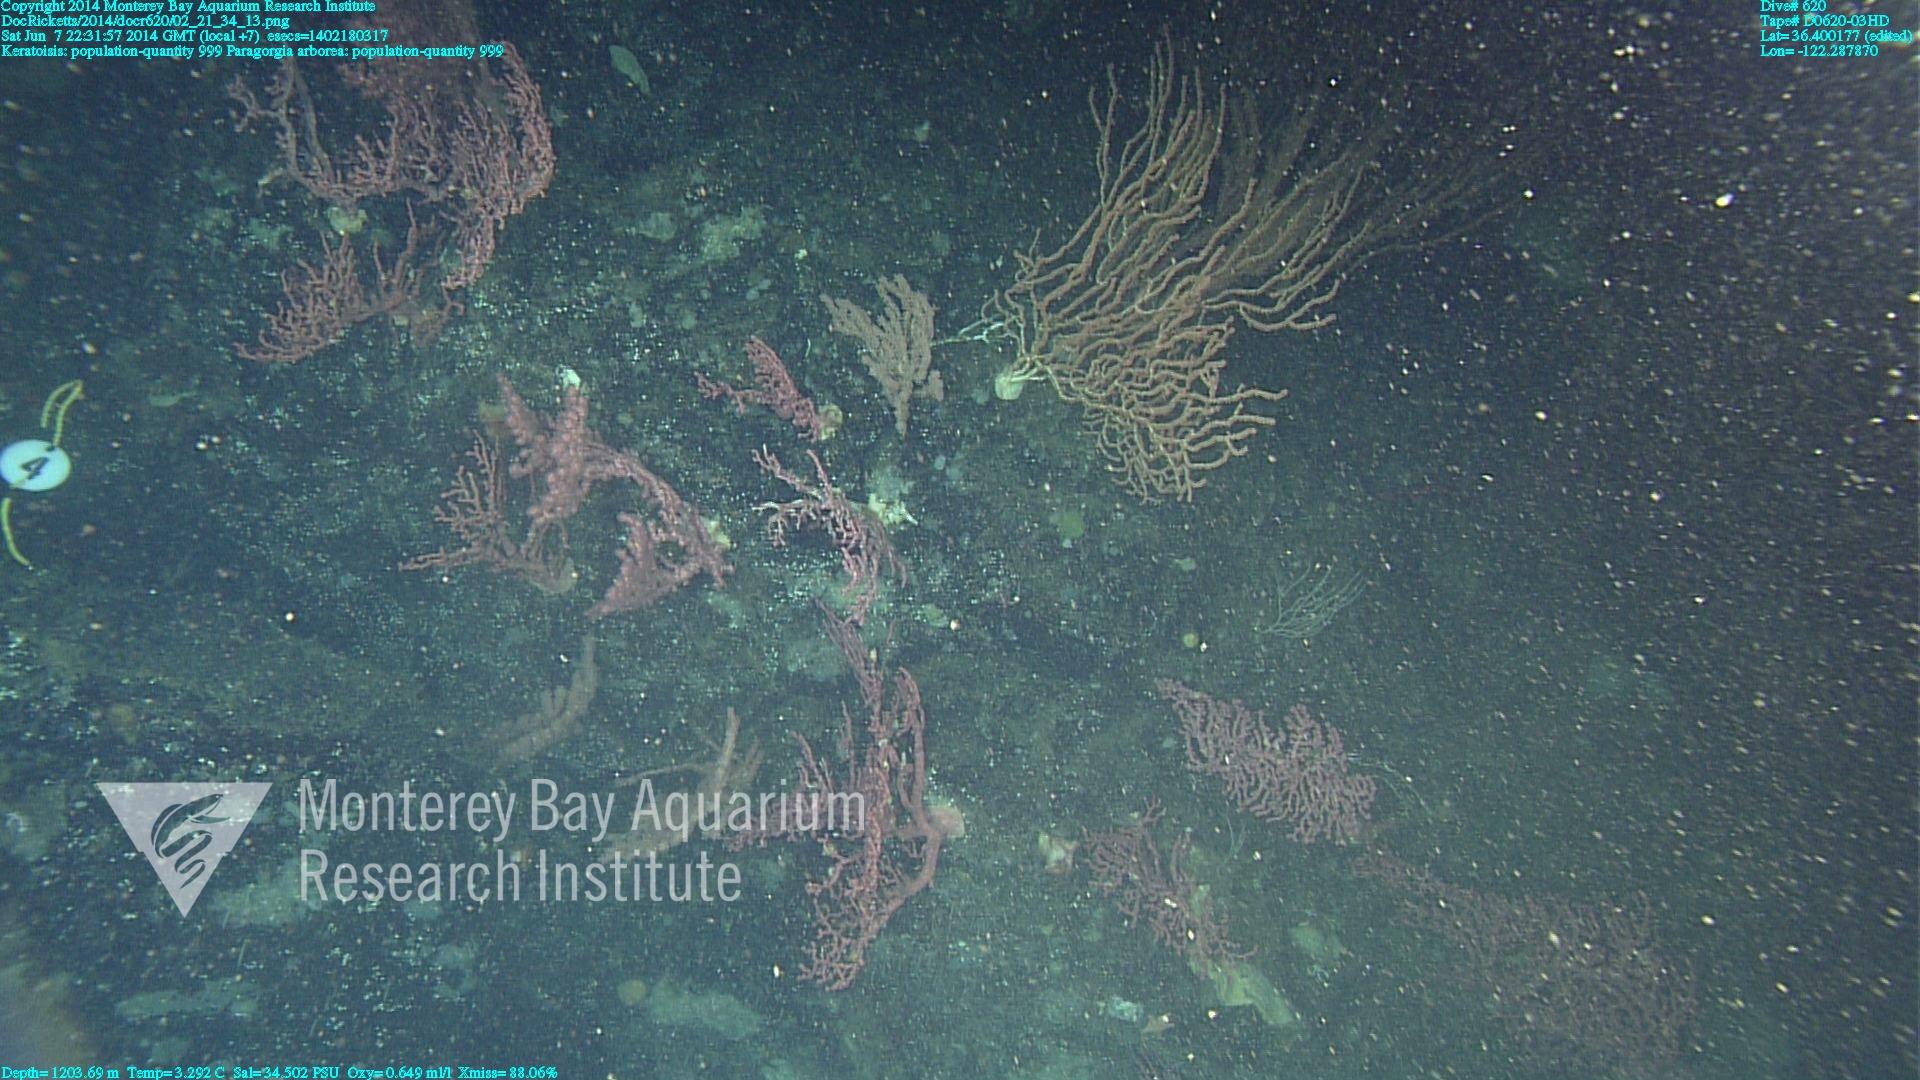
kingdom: Animalia
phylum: Cnidaria
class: Anthozoa
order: Scleralcyonacea
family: Coralliidae
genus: Paragorgia
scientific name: Paragorgia arborea
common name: Bubble gum coral
